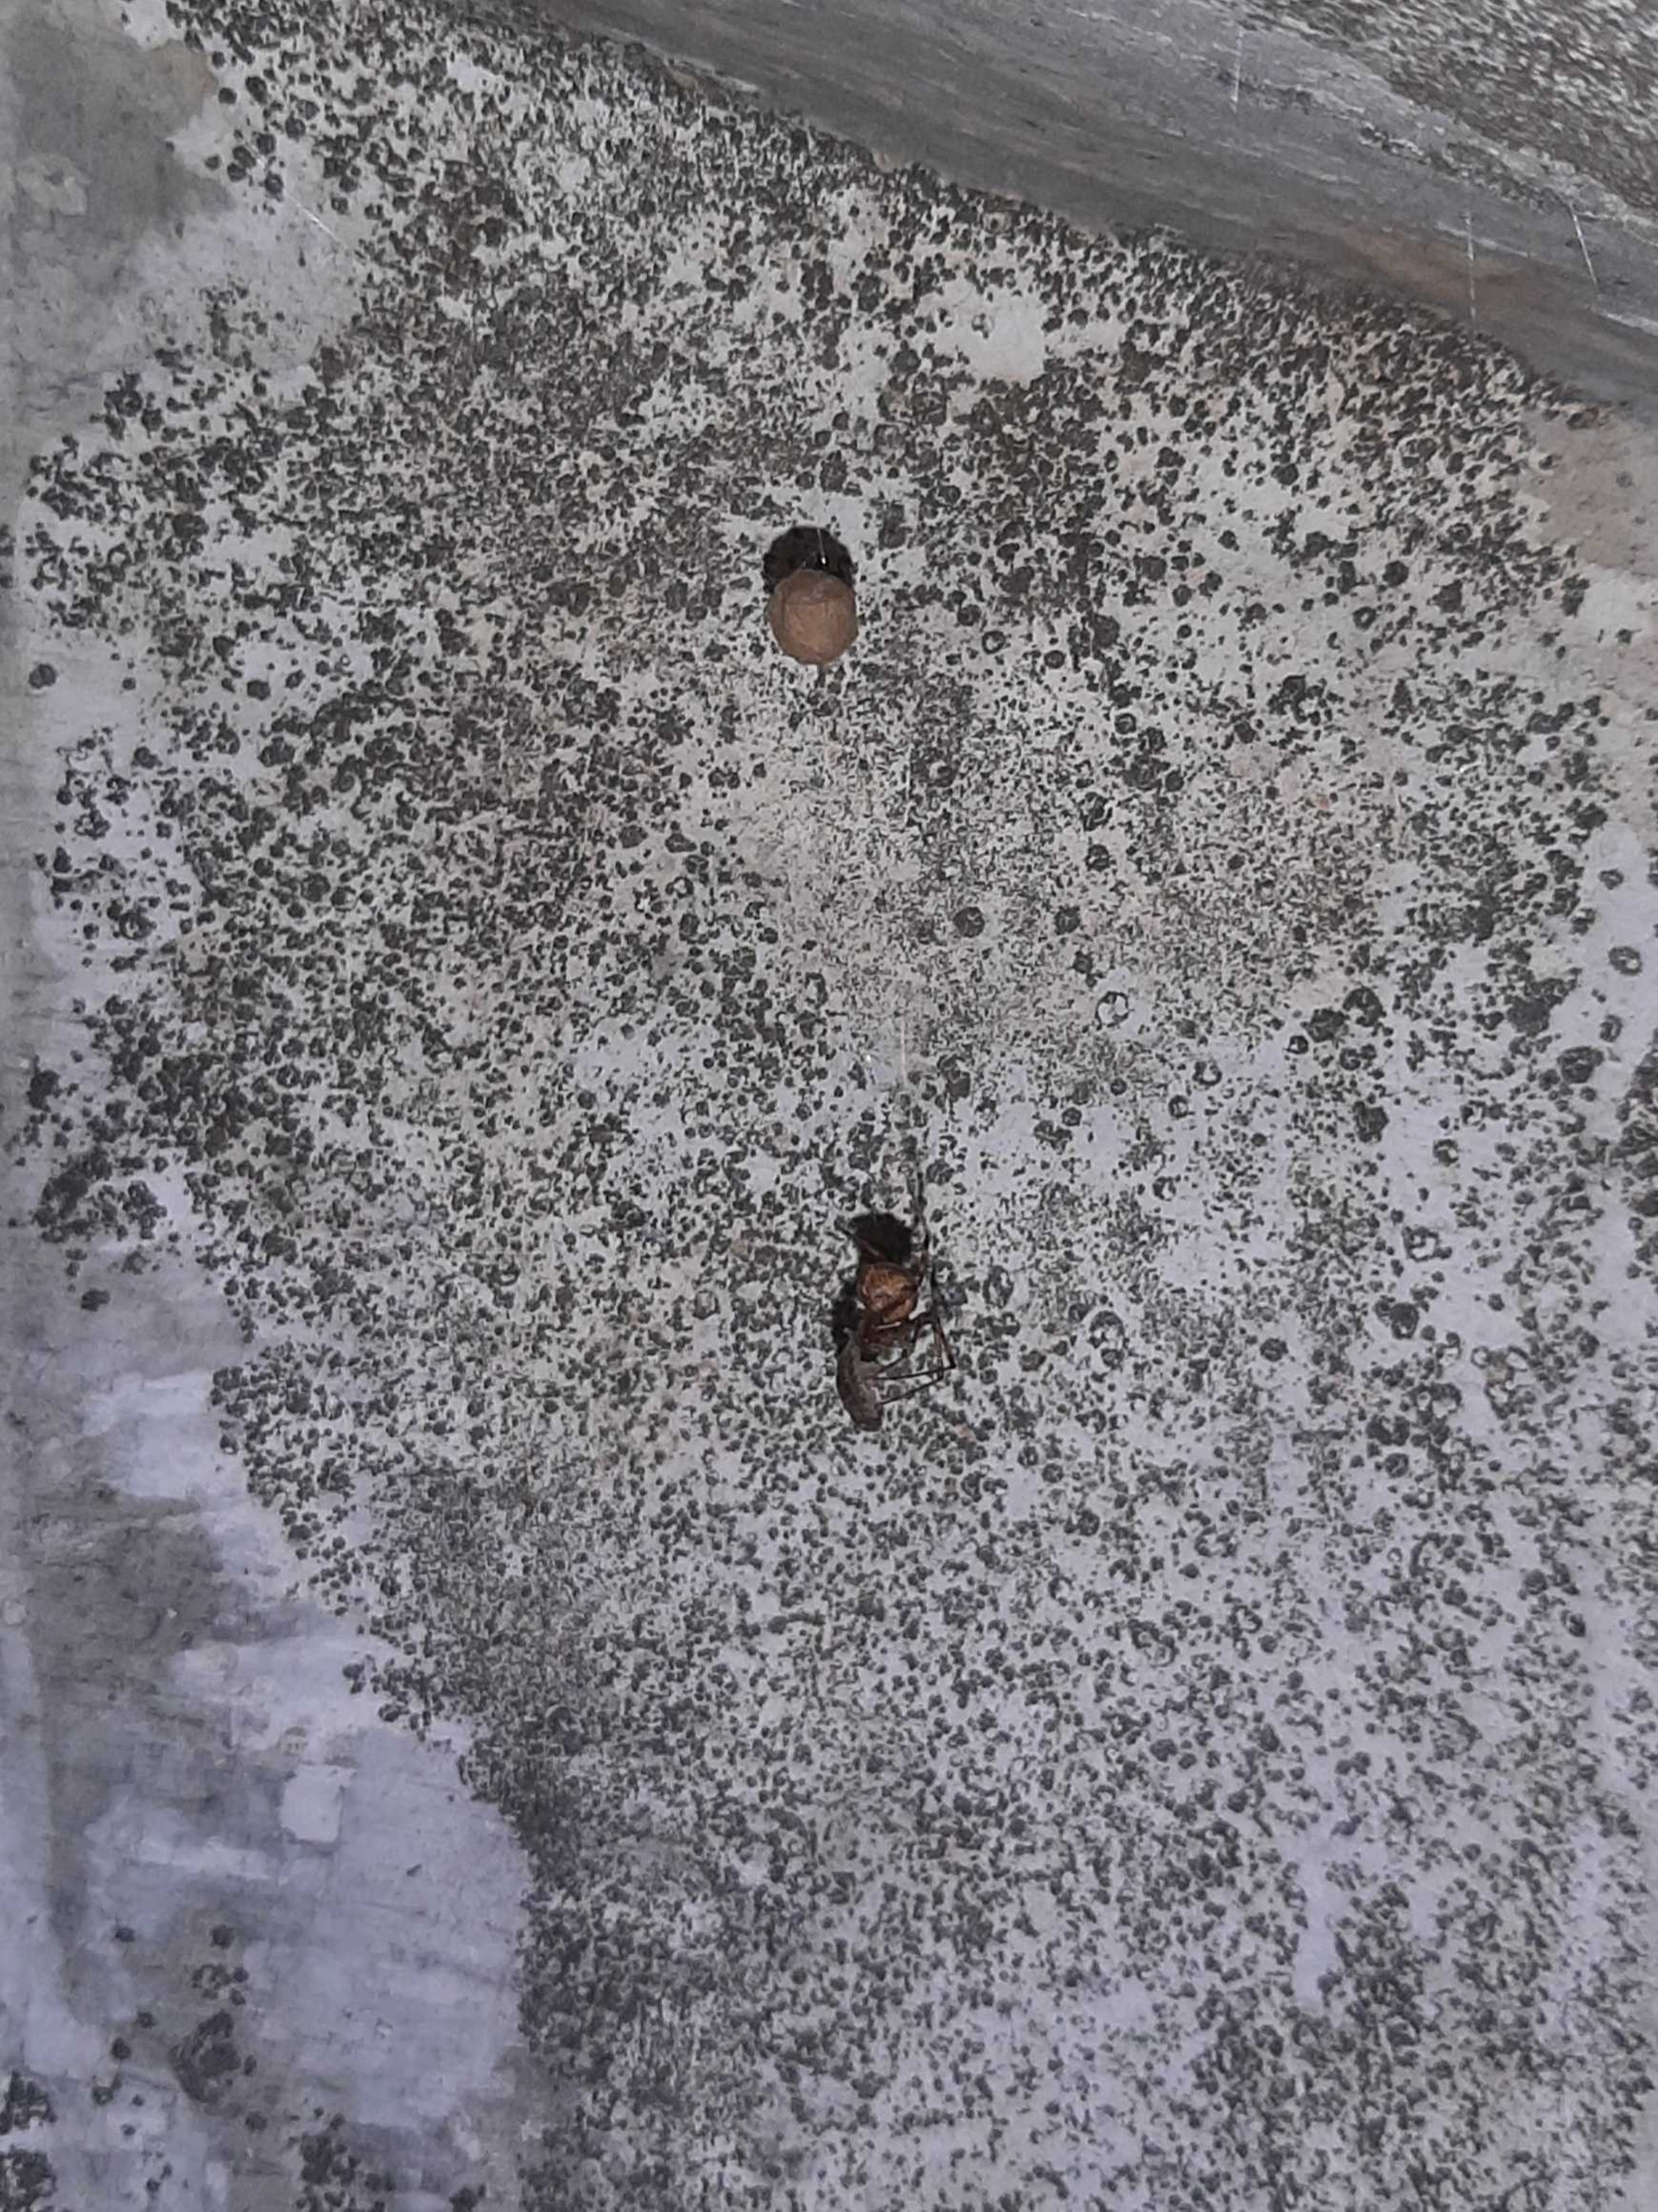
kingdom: Animalia
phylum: Arthropoda
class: Arachnida
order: Araneae
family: Tetragnathidae
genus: Meta
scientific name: Meta menardi
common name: Grotteedderkop
